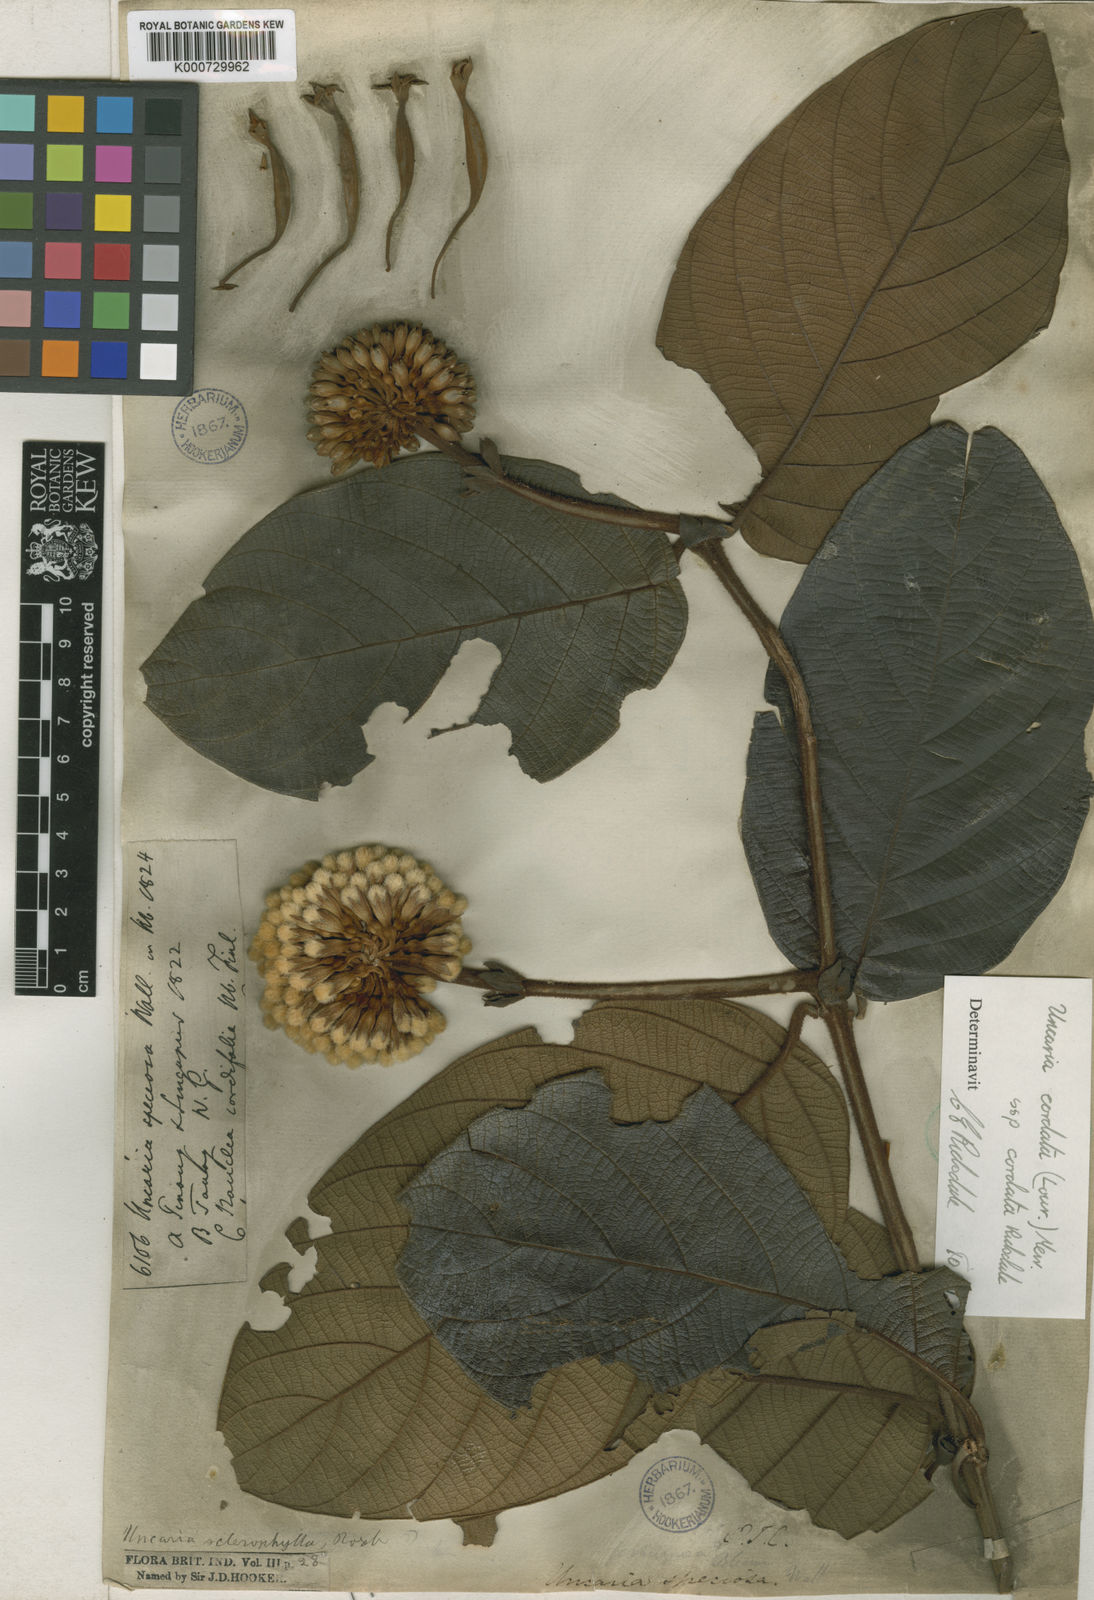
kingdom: Plantae
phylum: Tracheophyta
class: Magnoliopsida
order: Gentianales
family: Rubiaceae
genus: Uncaria
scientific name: Uncaria cordata
